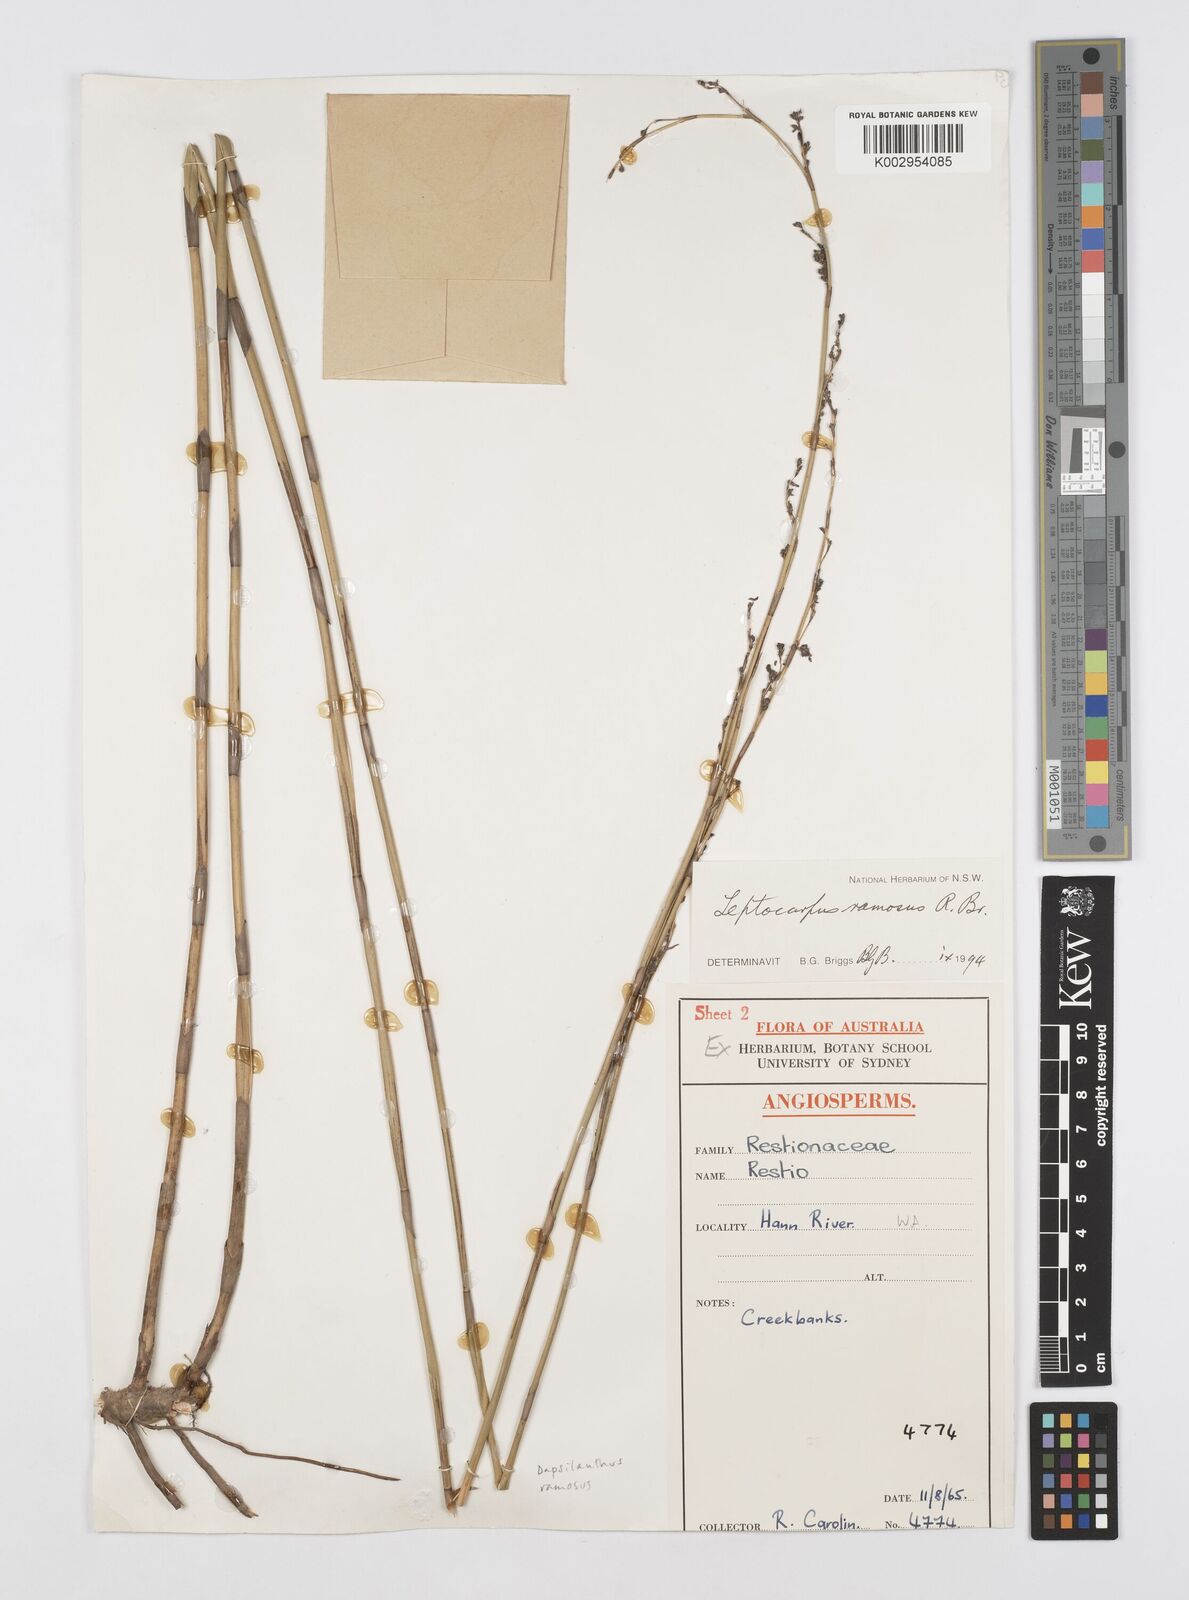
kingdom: Plantae
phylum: Tracheophyta
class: Liliopsida
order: Poales
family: Restionaceae
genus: Dapsilanthus
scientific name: Dapsilanthus ramosus
